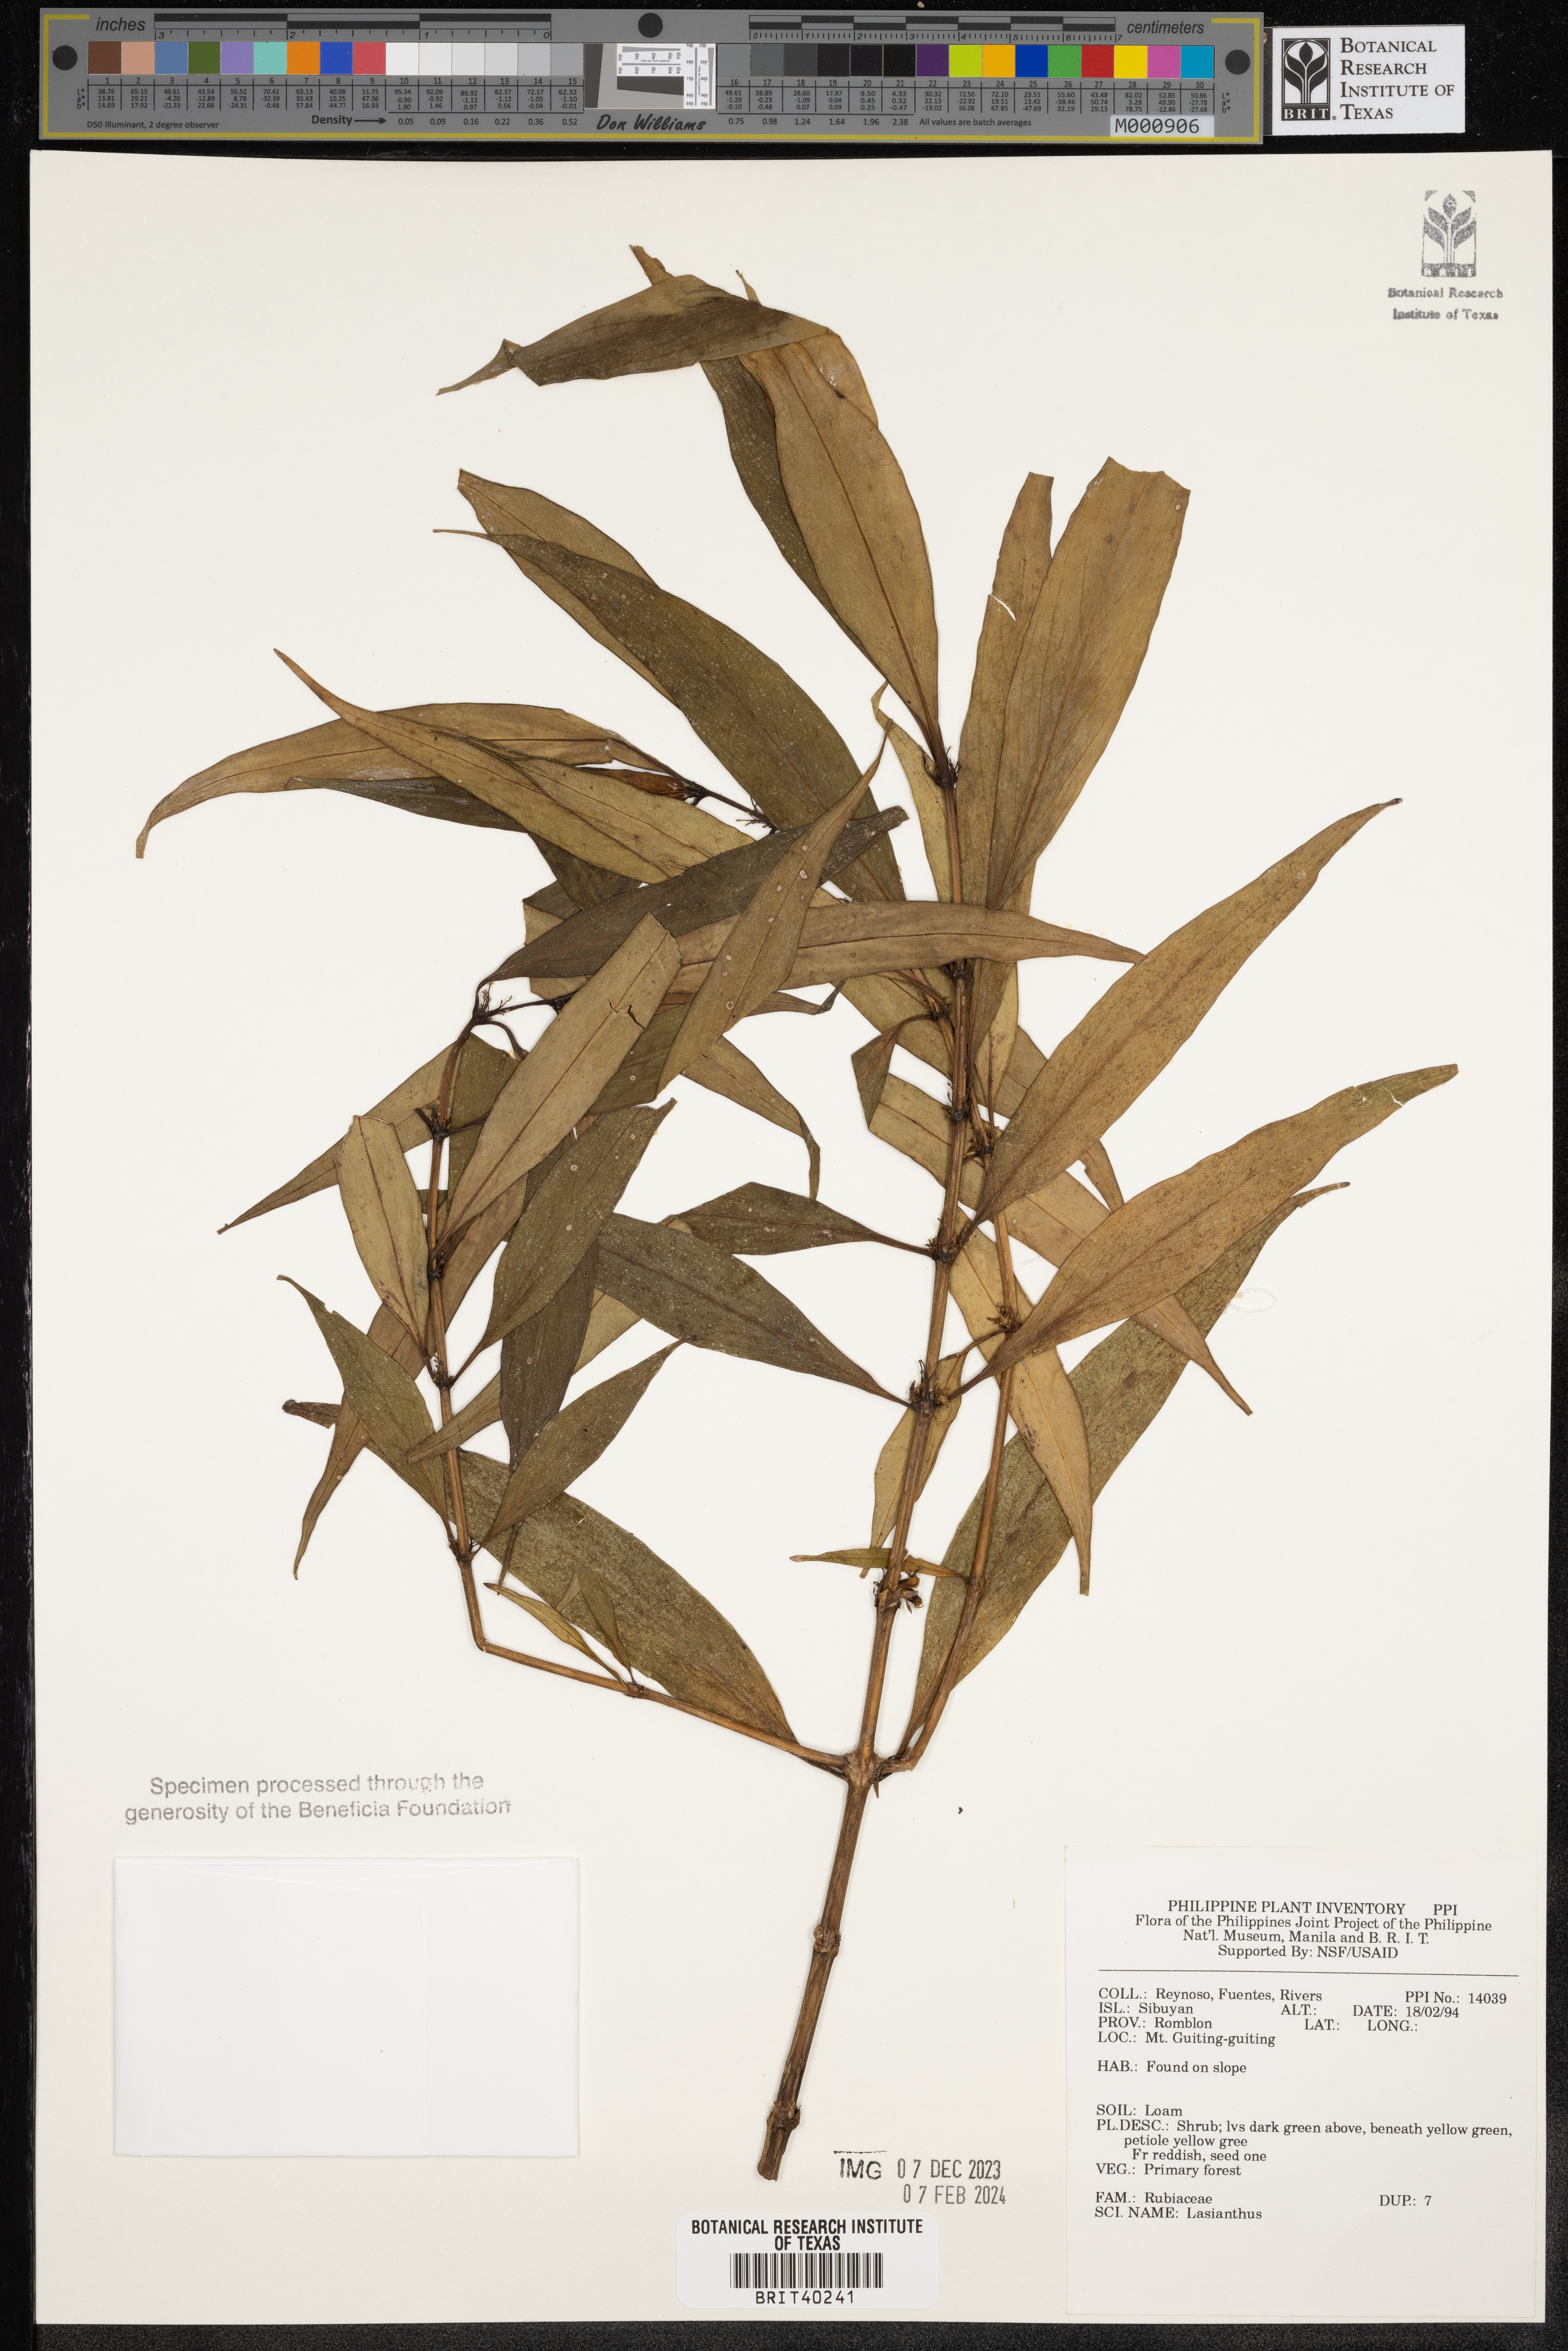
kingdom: Plantae
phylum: Tracheophyta
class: Magnoliopsida
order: Gentianales
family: Rubiaceae
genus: Lasianthus
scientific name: Lasianthus
